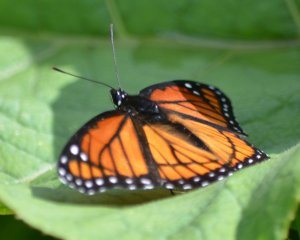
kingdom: Animalia
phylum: Arthropoda
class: Insecta
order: Lepidoptera
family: Nymphalidae
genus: Limenitis
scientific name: Limenitis archippus
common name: Viceroy
